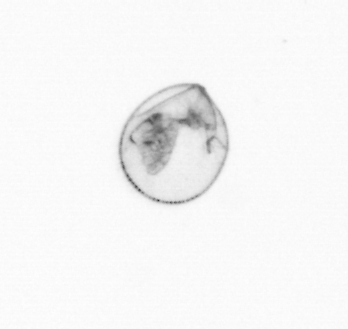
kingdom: Chromista
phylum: Myzozoa
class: Dinophyceae
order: Noctilucales
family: Noctilucaceae
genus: Noctiluca
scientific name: Noctiluca scintillans
